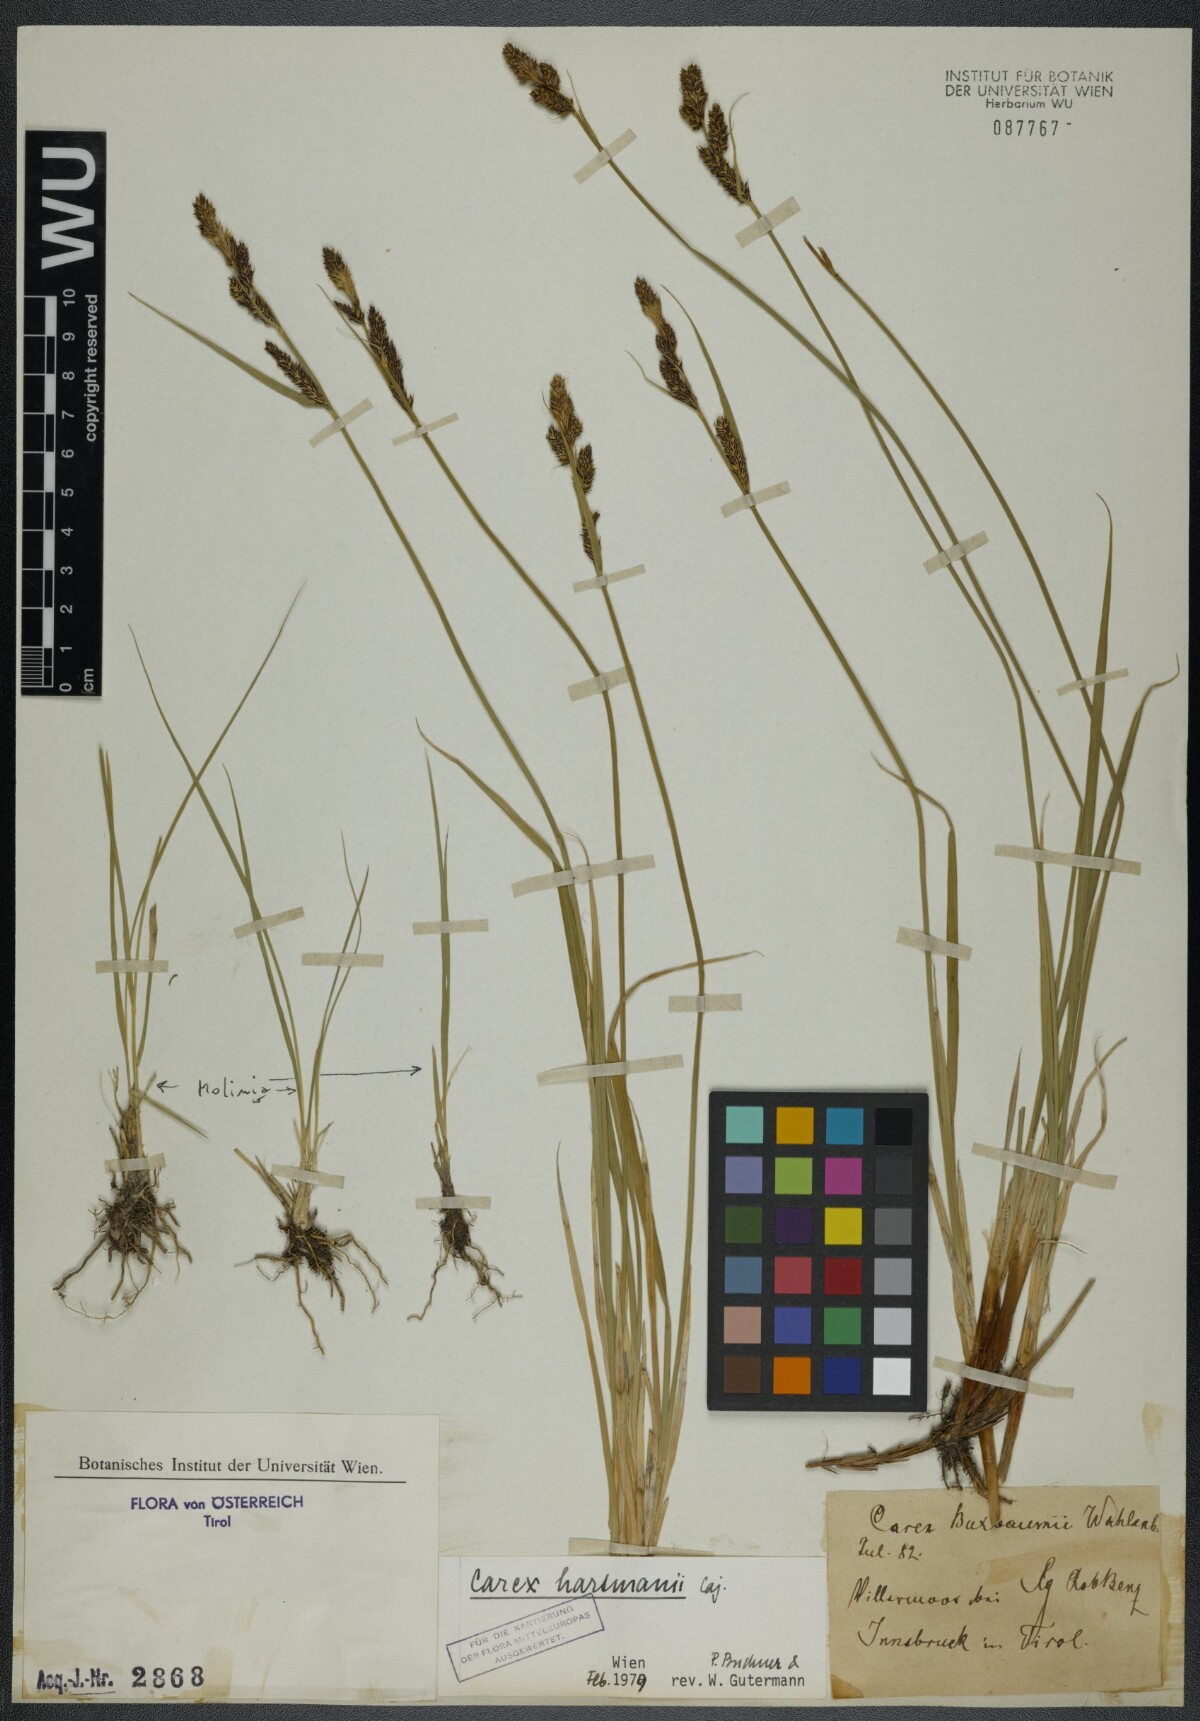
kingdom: Plantae
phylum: Tracheophyta
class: Liliopsida
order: Poales
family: Cyperaceae
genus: Carex
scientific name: Carex hartmaniorum
